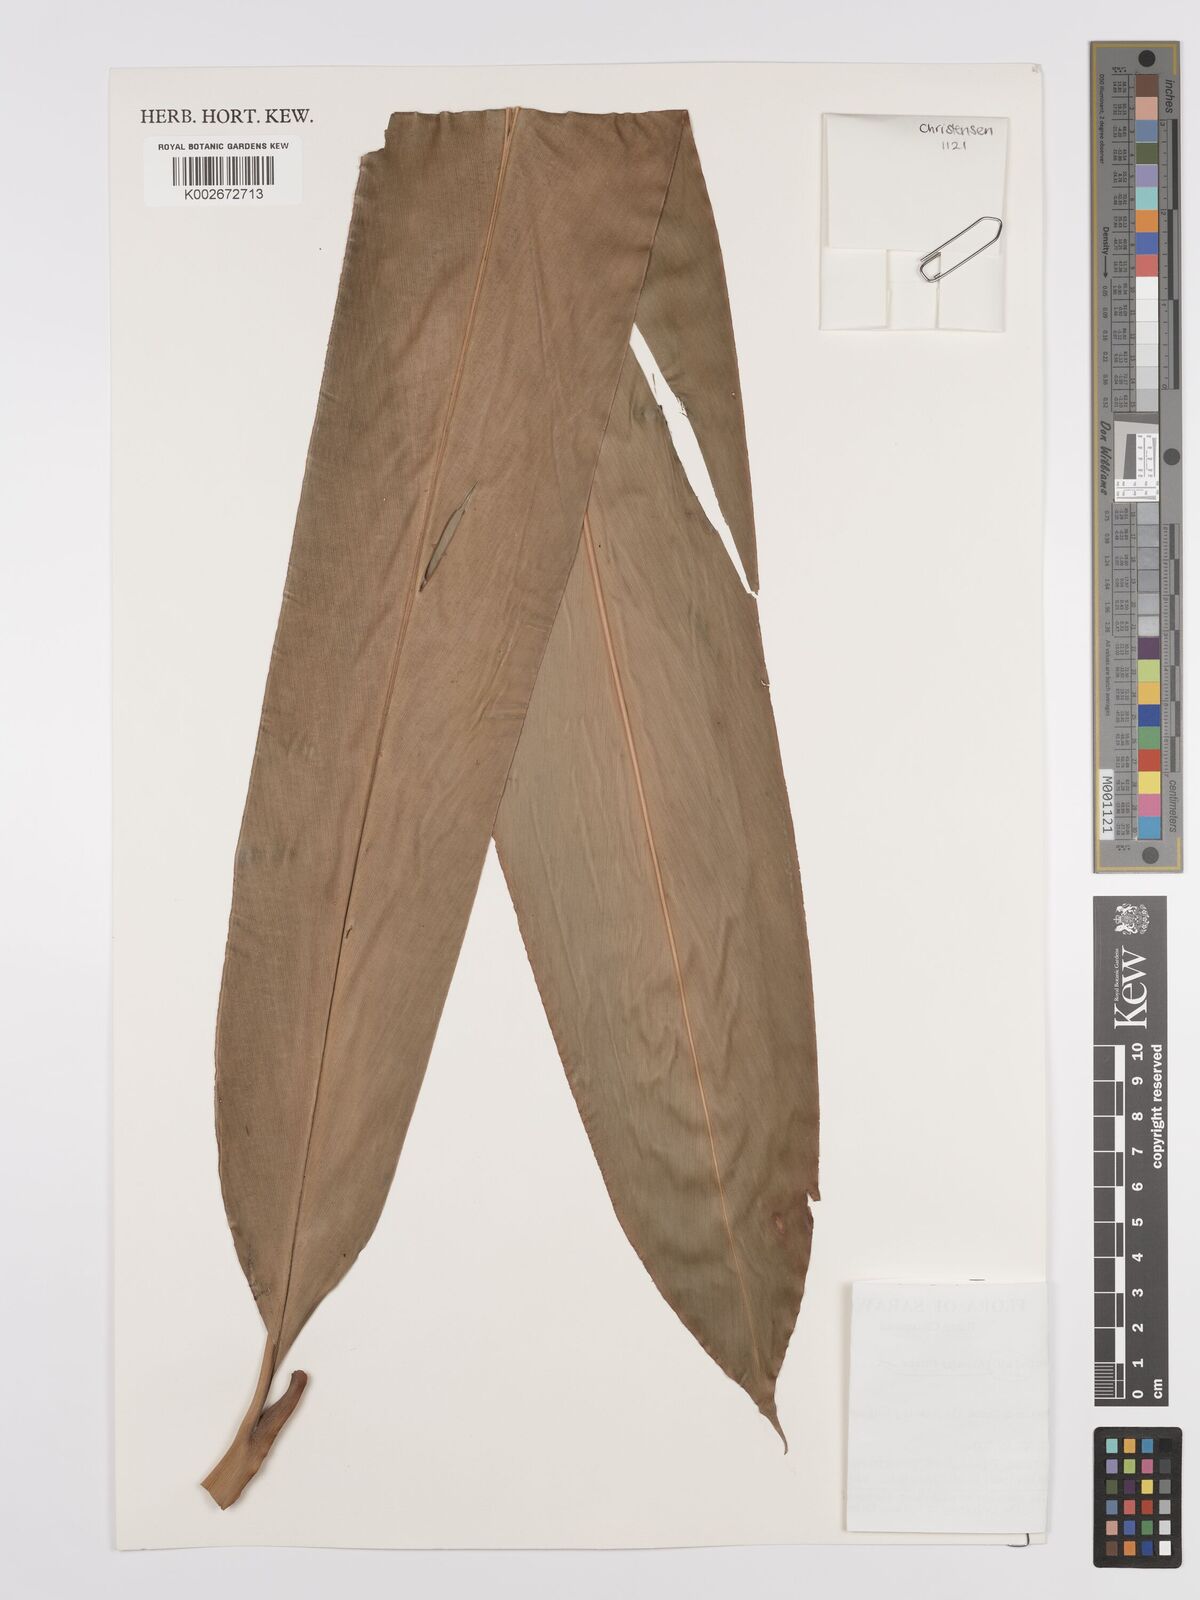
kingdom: Plantae
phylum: Tracheophyta
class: Liliopsida
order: Zingiberales
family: Zingiberaceae
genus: Etlingera
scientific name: Etlingera nasuta
